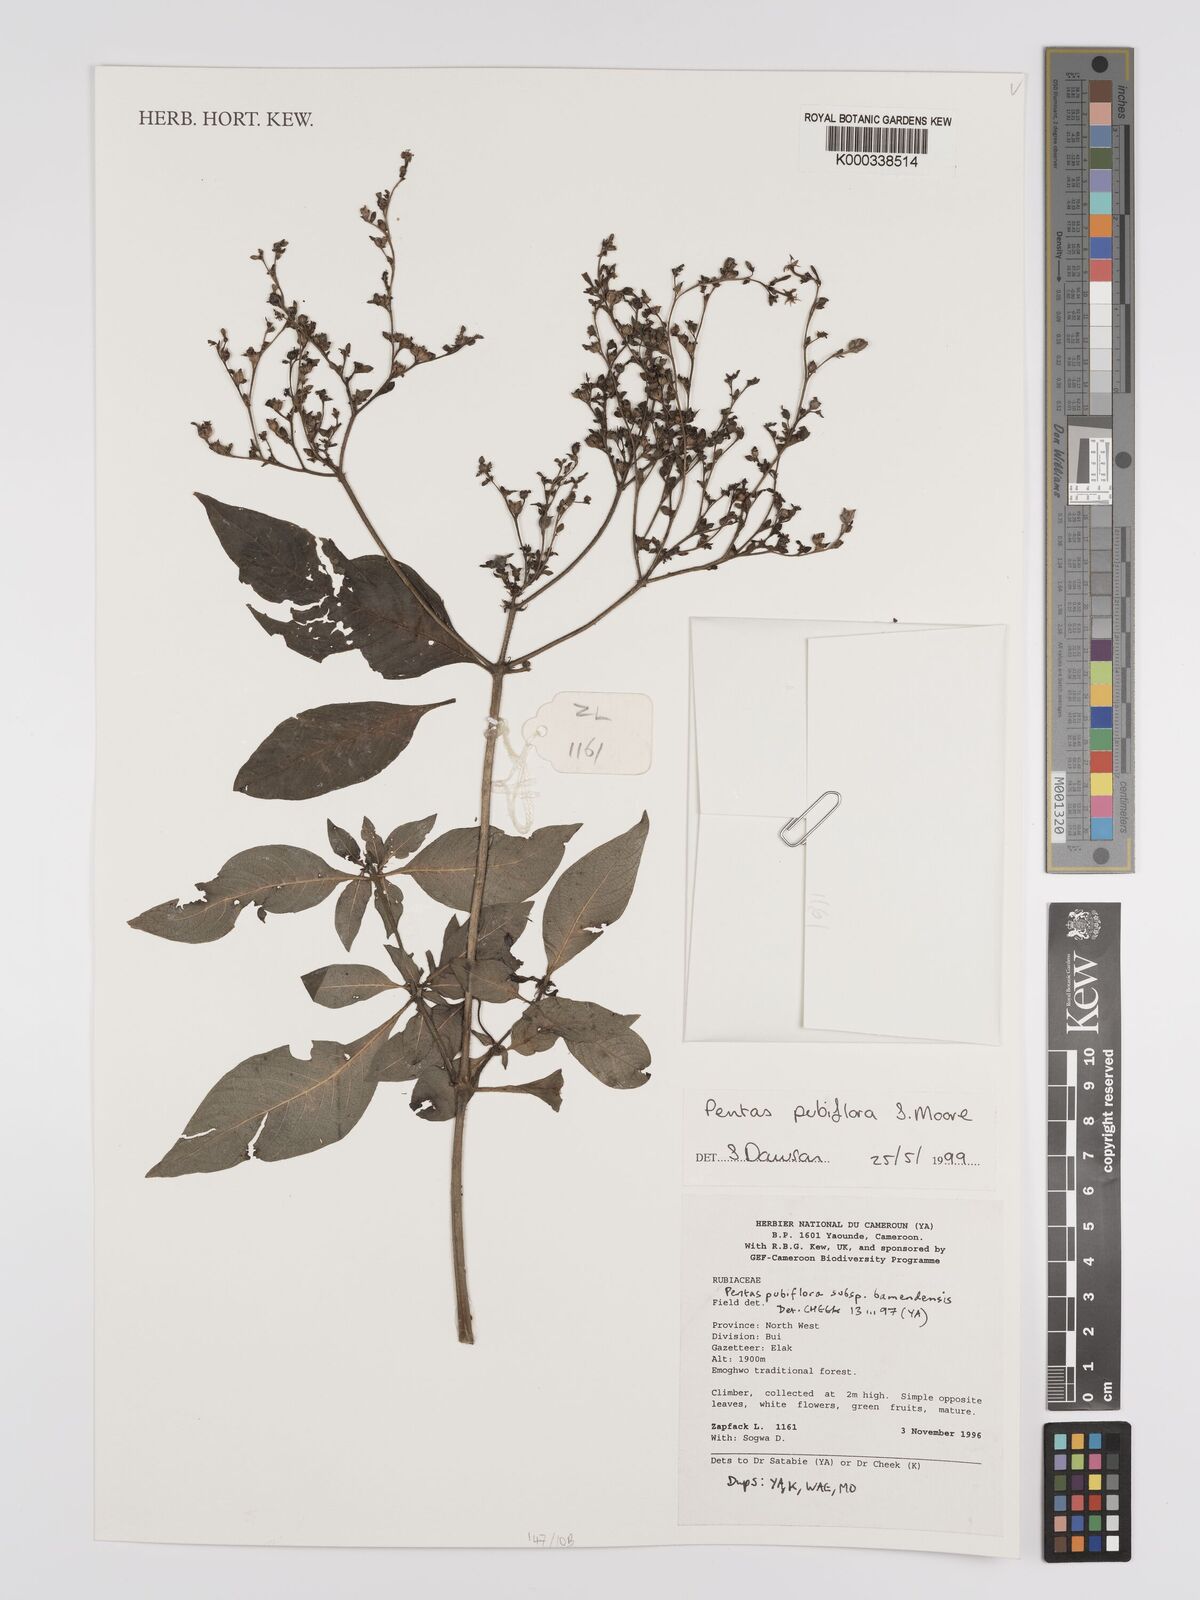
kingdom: Plantae
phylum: Tracheophyta
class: Magnoliopsida
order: Gentianales
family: Rubiaceae
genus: Pentas
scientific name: Pentas pubiflora
